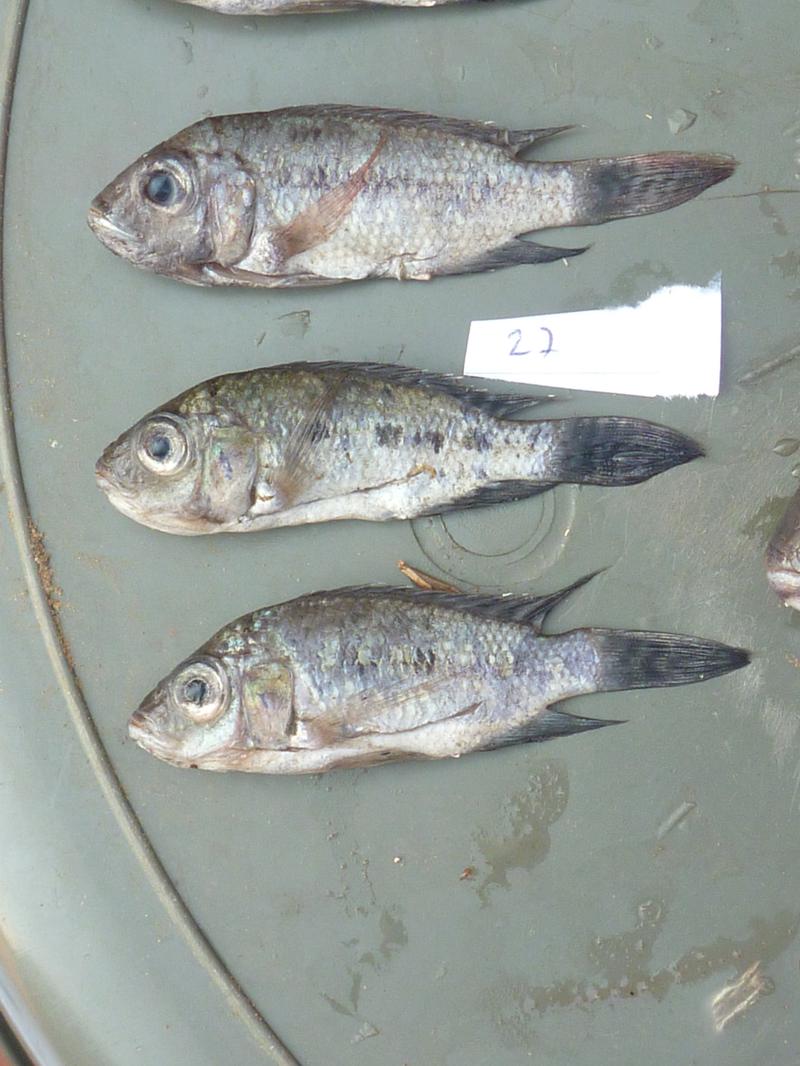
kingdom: Animalia
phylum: Chordata
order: Perciformes
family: Cichlidae
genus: Oreochromis
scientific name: Oreochromis korogwe
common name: Korogwe tilapia
